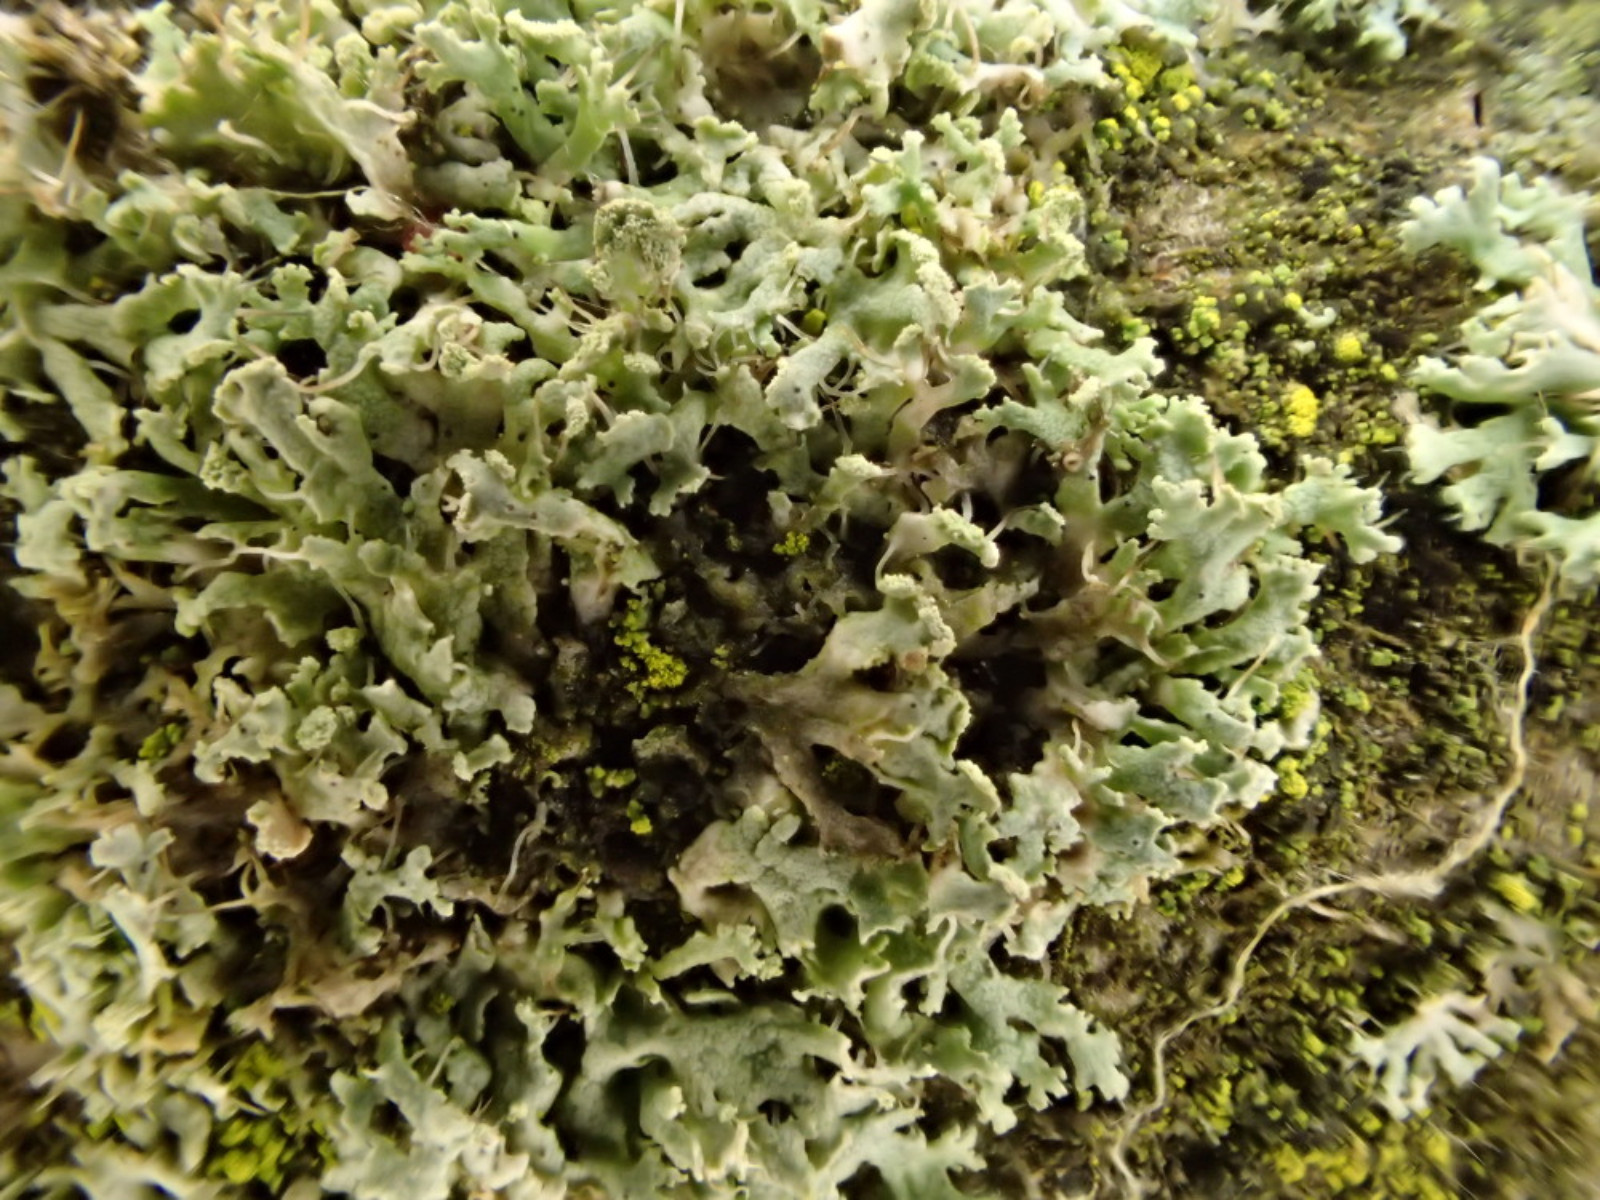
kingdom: Fungi
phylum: Ascomycota
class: Lecanoromycetes
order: Caliciales
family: Physciaceae
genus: Physcia
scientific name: Physcia tenella
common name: spæd rosetlav
